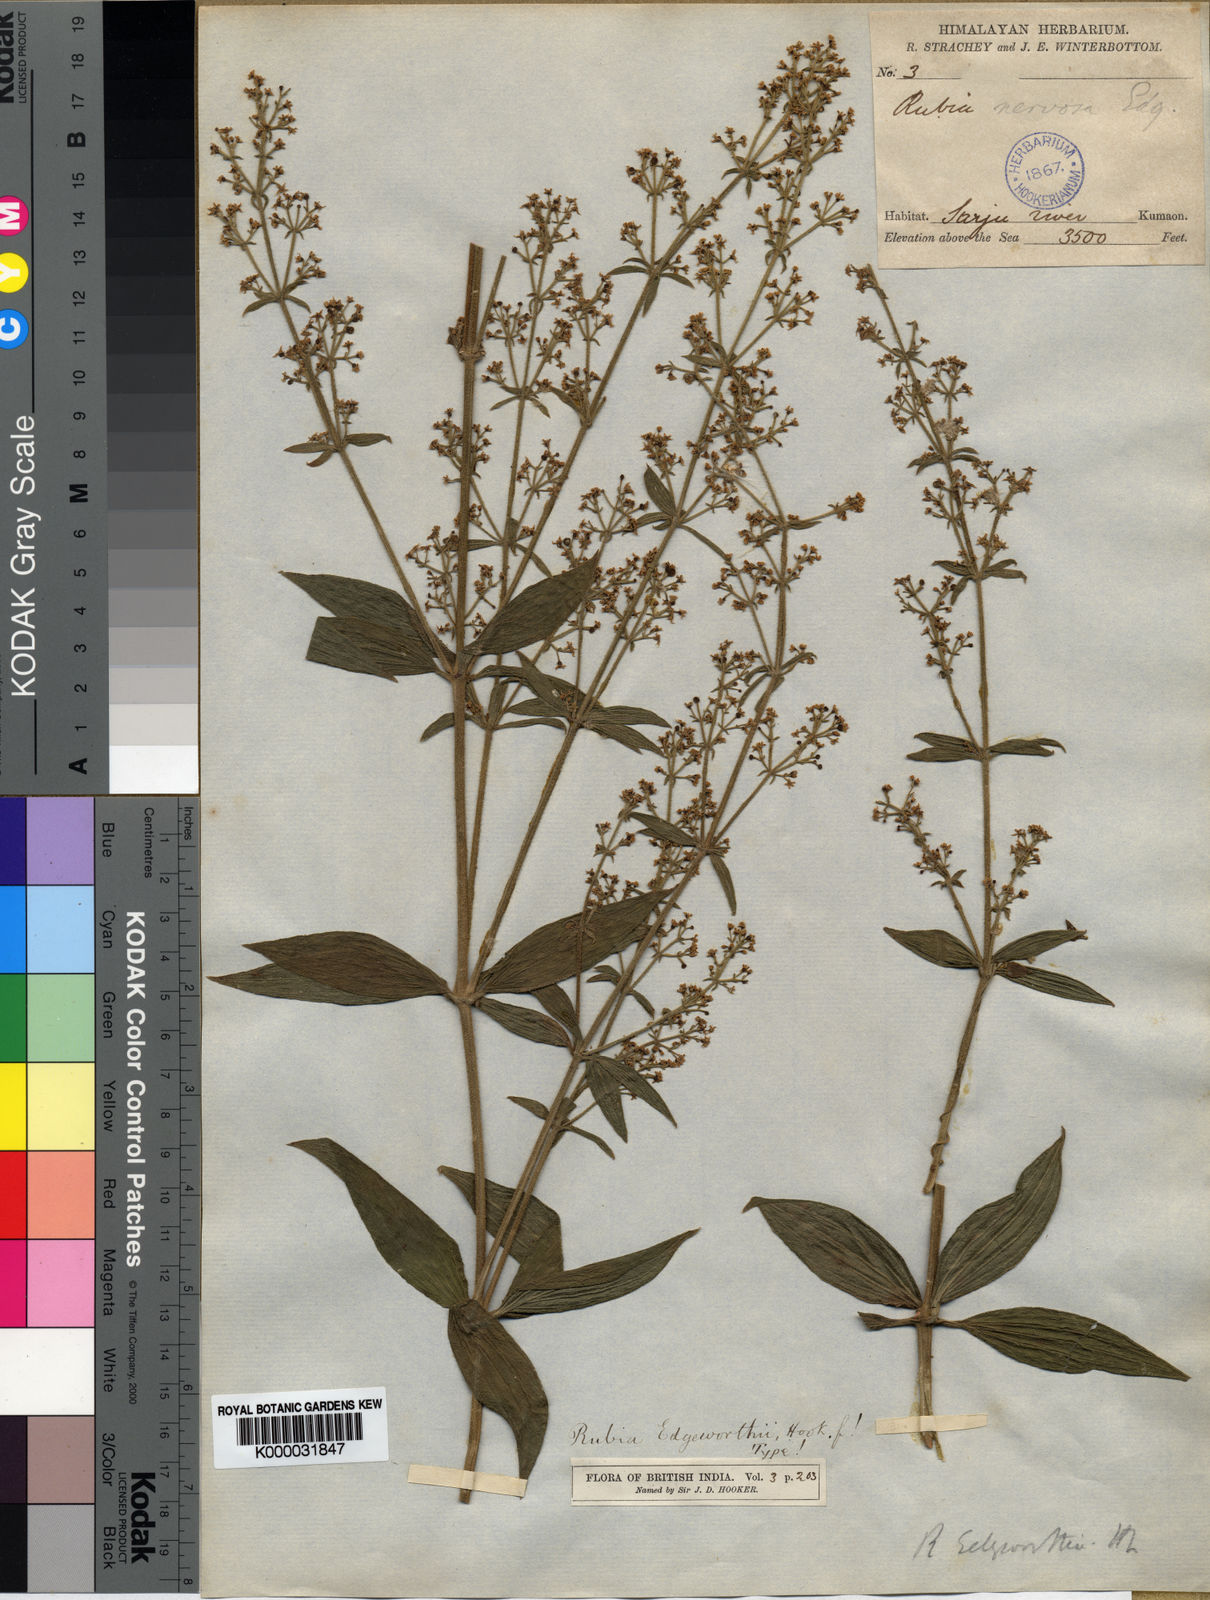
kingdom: Plantae
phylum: Tracheophyta
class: Magnoliopsida
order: Gentianales
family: Rubiaceae
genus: Rubia
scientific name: Rubia edgeworthii
